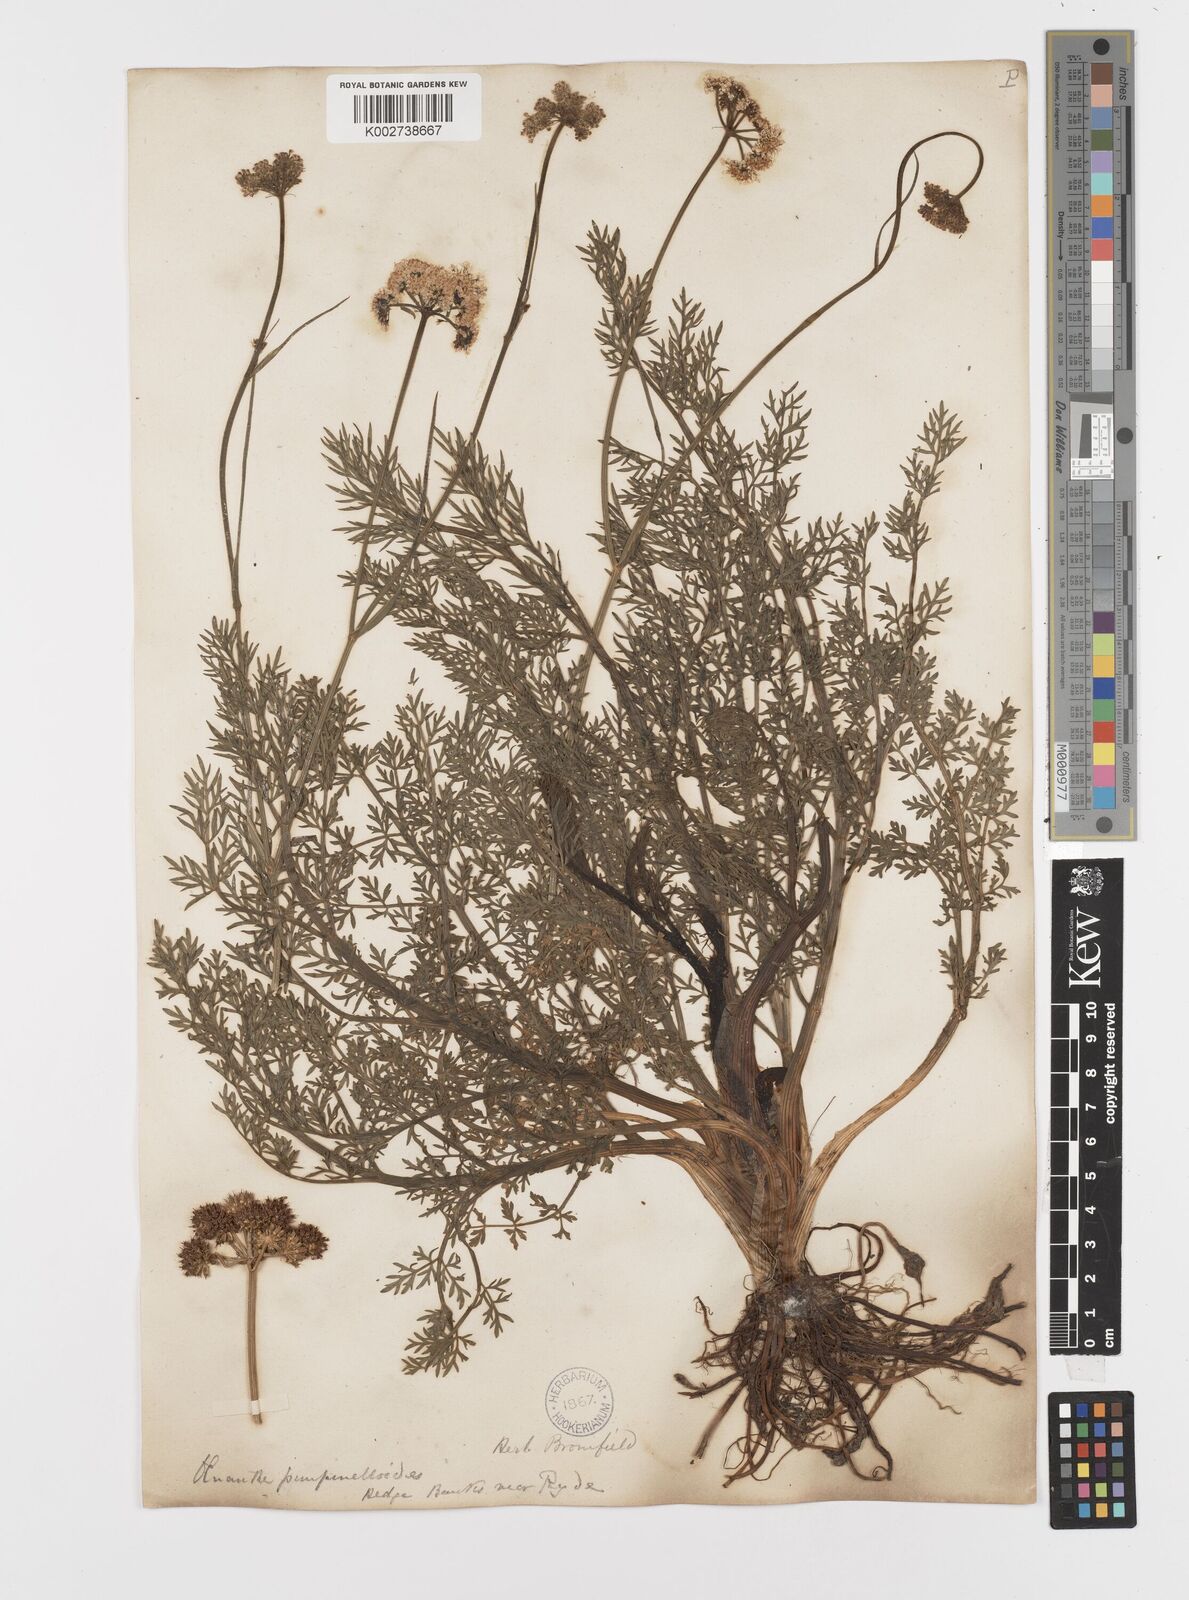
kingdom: Plantae
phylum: Tracheophyta
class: Magnoliopsida
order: Apiales
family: Apiaceae
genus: Oenanthe
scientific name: Oenanthe pimpinelloides
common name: Corky-fruited water-dropwort
